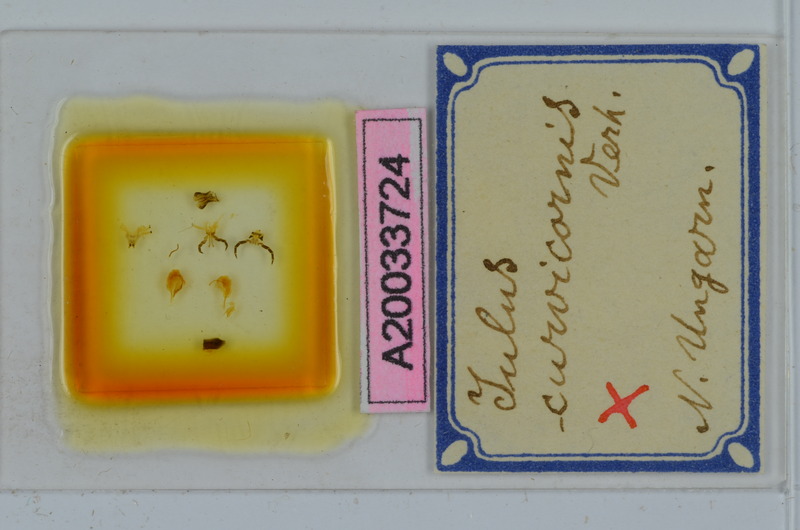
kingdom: Animalia
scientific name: Animalia
